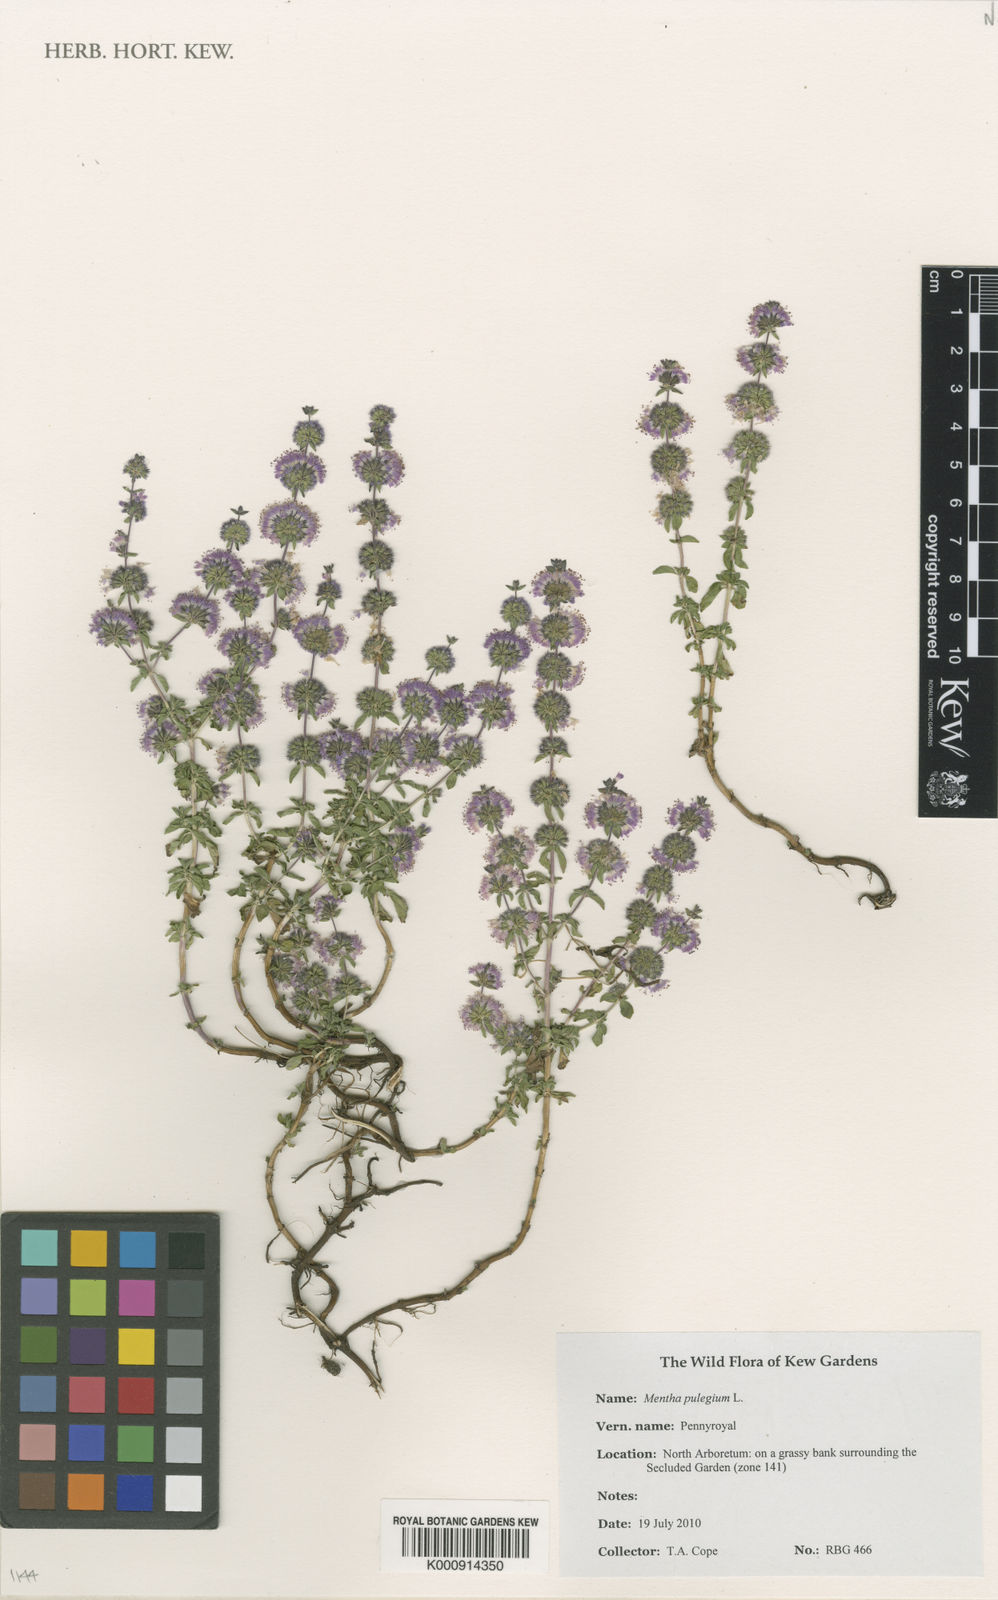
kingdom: Plantae
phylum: Tracheophyta
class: Magnoliopsida
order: Lamiales
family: Lamiaceae
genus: Mentha
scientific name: Mentha pulegium
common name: Pennyroyal
